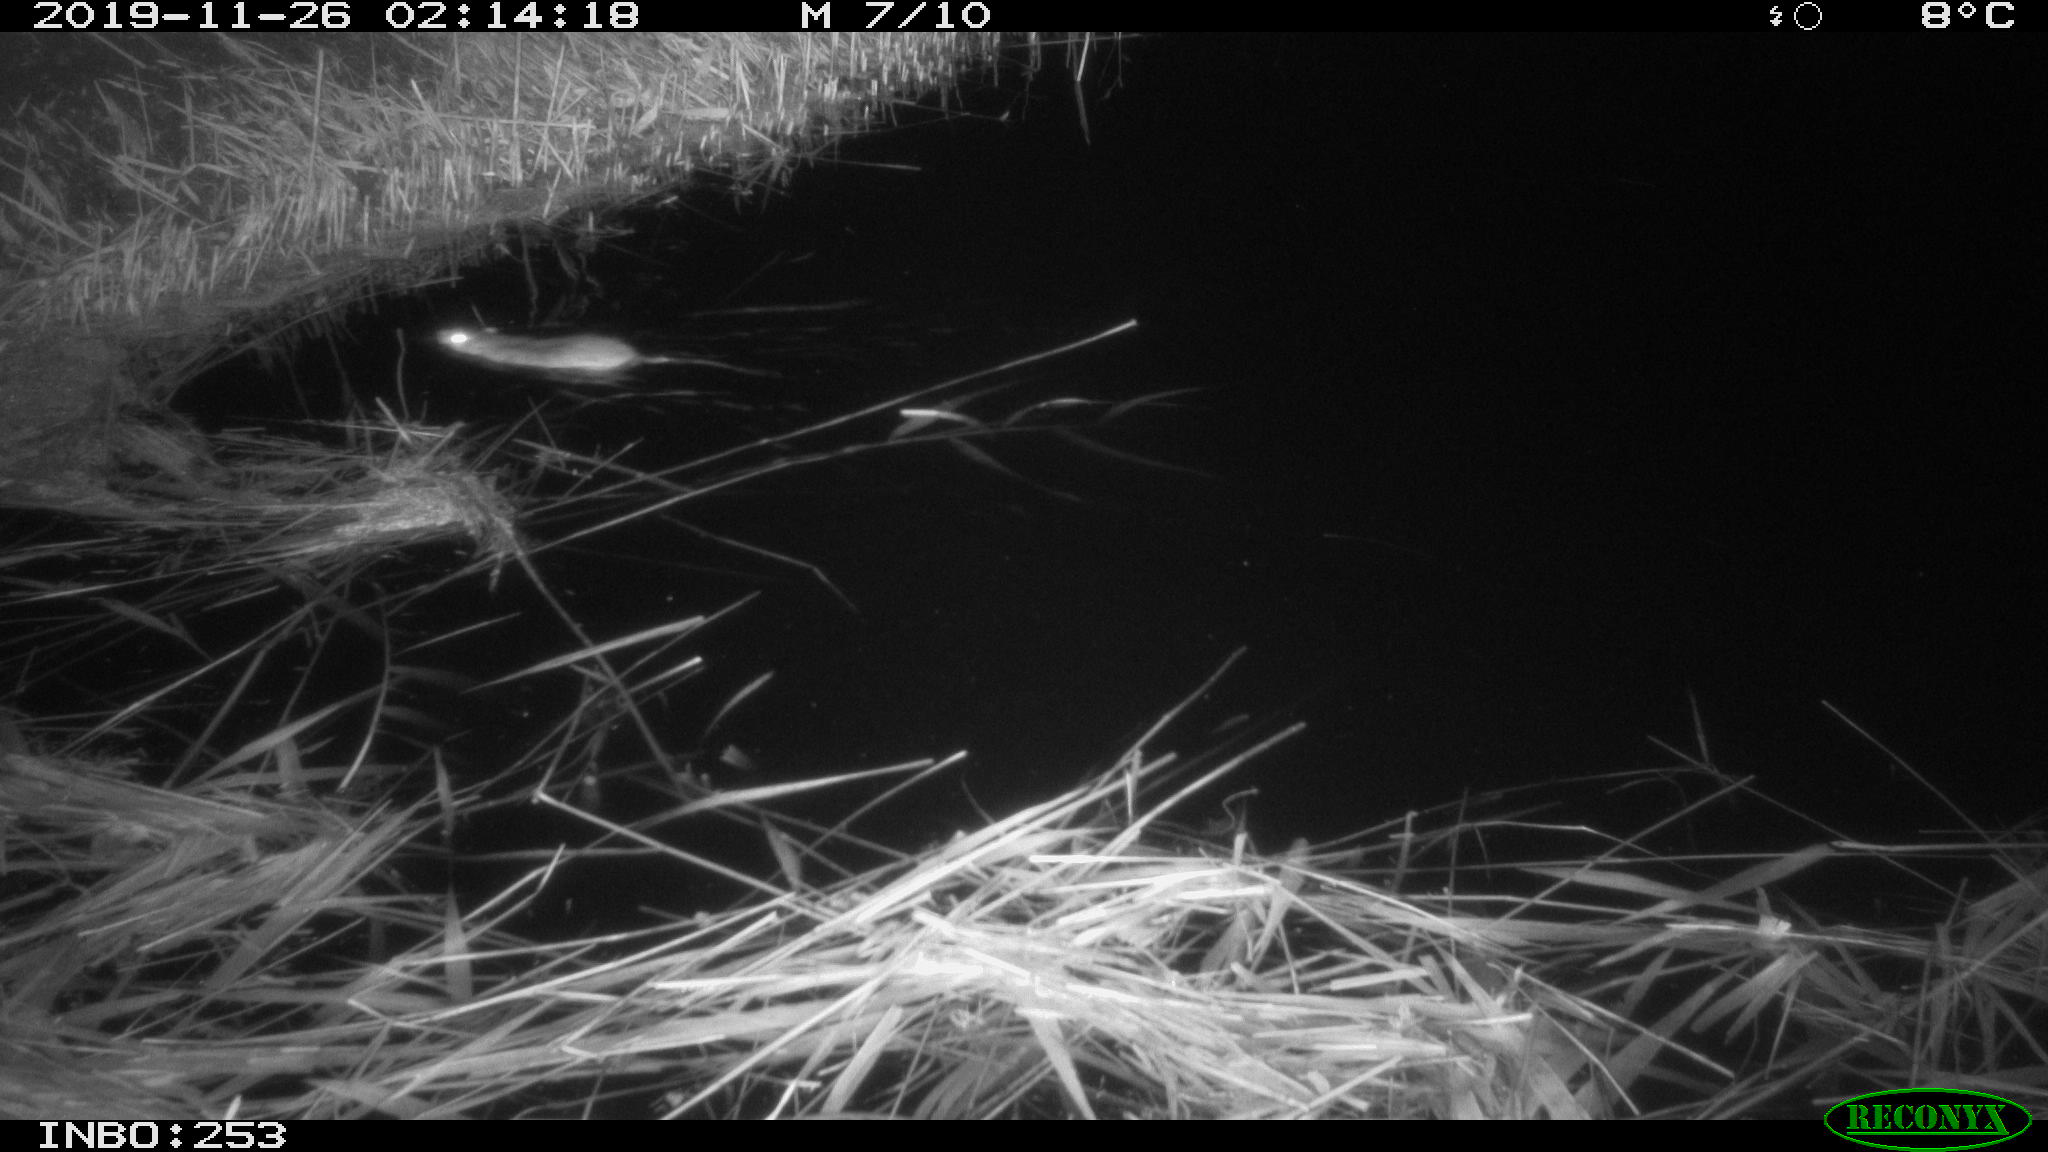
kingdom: Animalia
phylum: Chordata
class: Mammalia
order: Rodentia
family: Muridae
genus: Rattus
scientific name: Rattus norvegicus
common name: Brown rat
